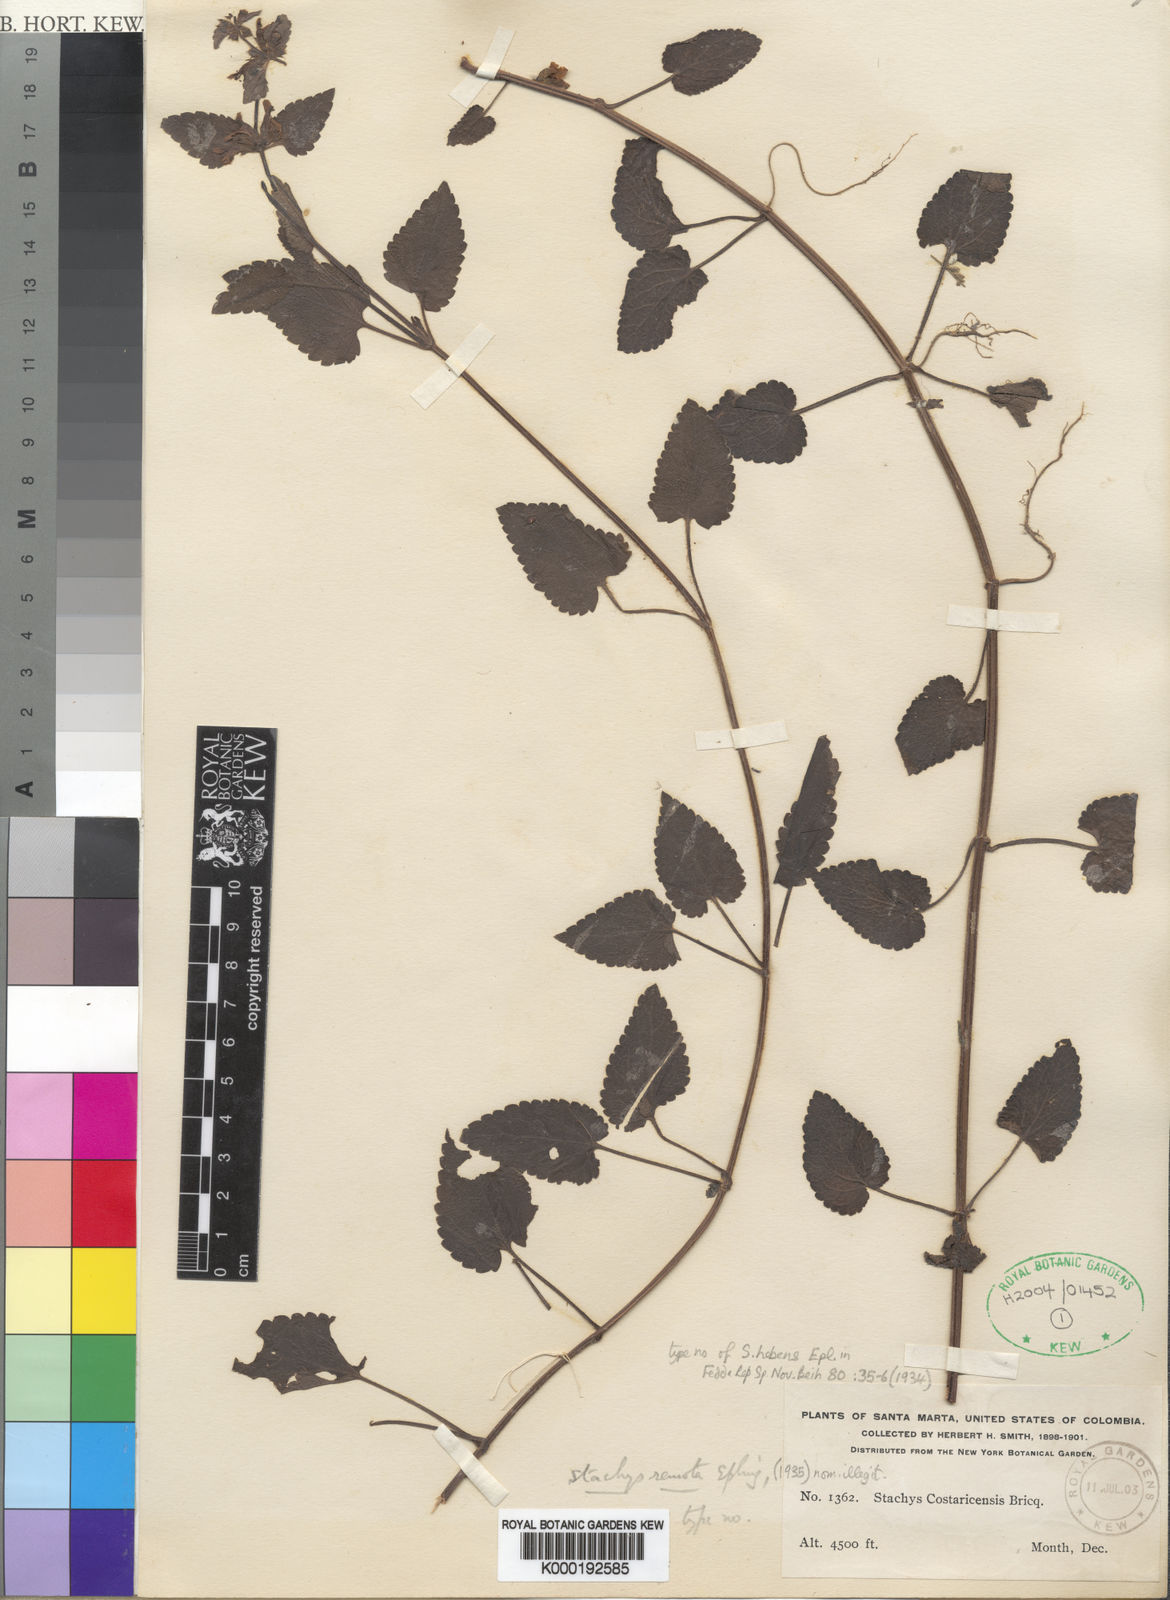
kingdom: Plantae
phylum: Tracheophyta
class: Magnoliopsida
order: Lamiales
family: Lamiaceae
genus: Stachys
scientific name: Stachys hebens
